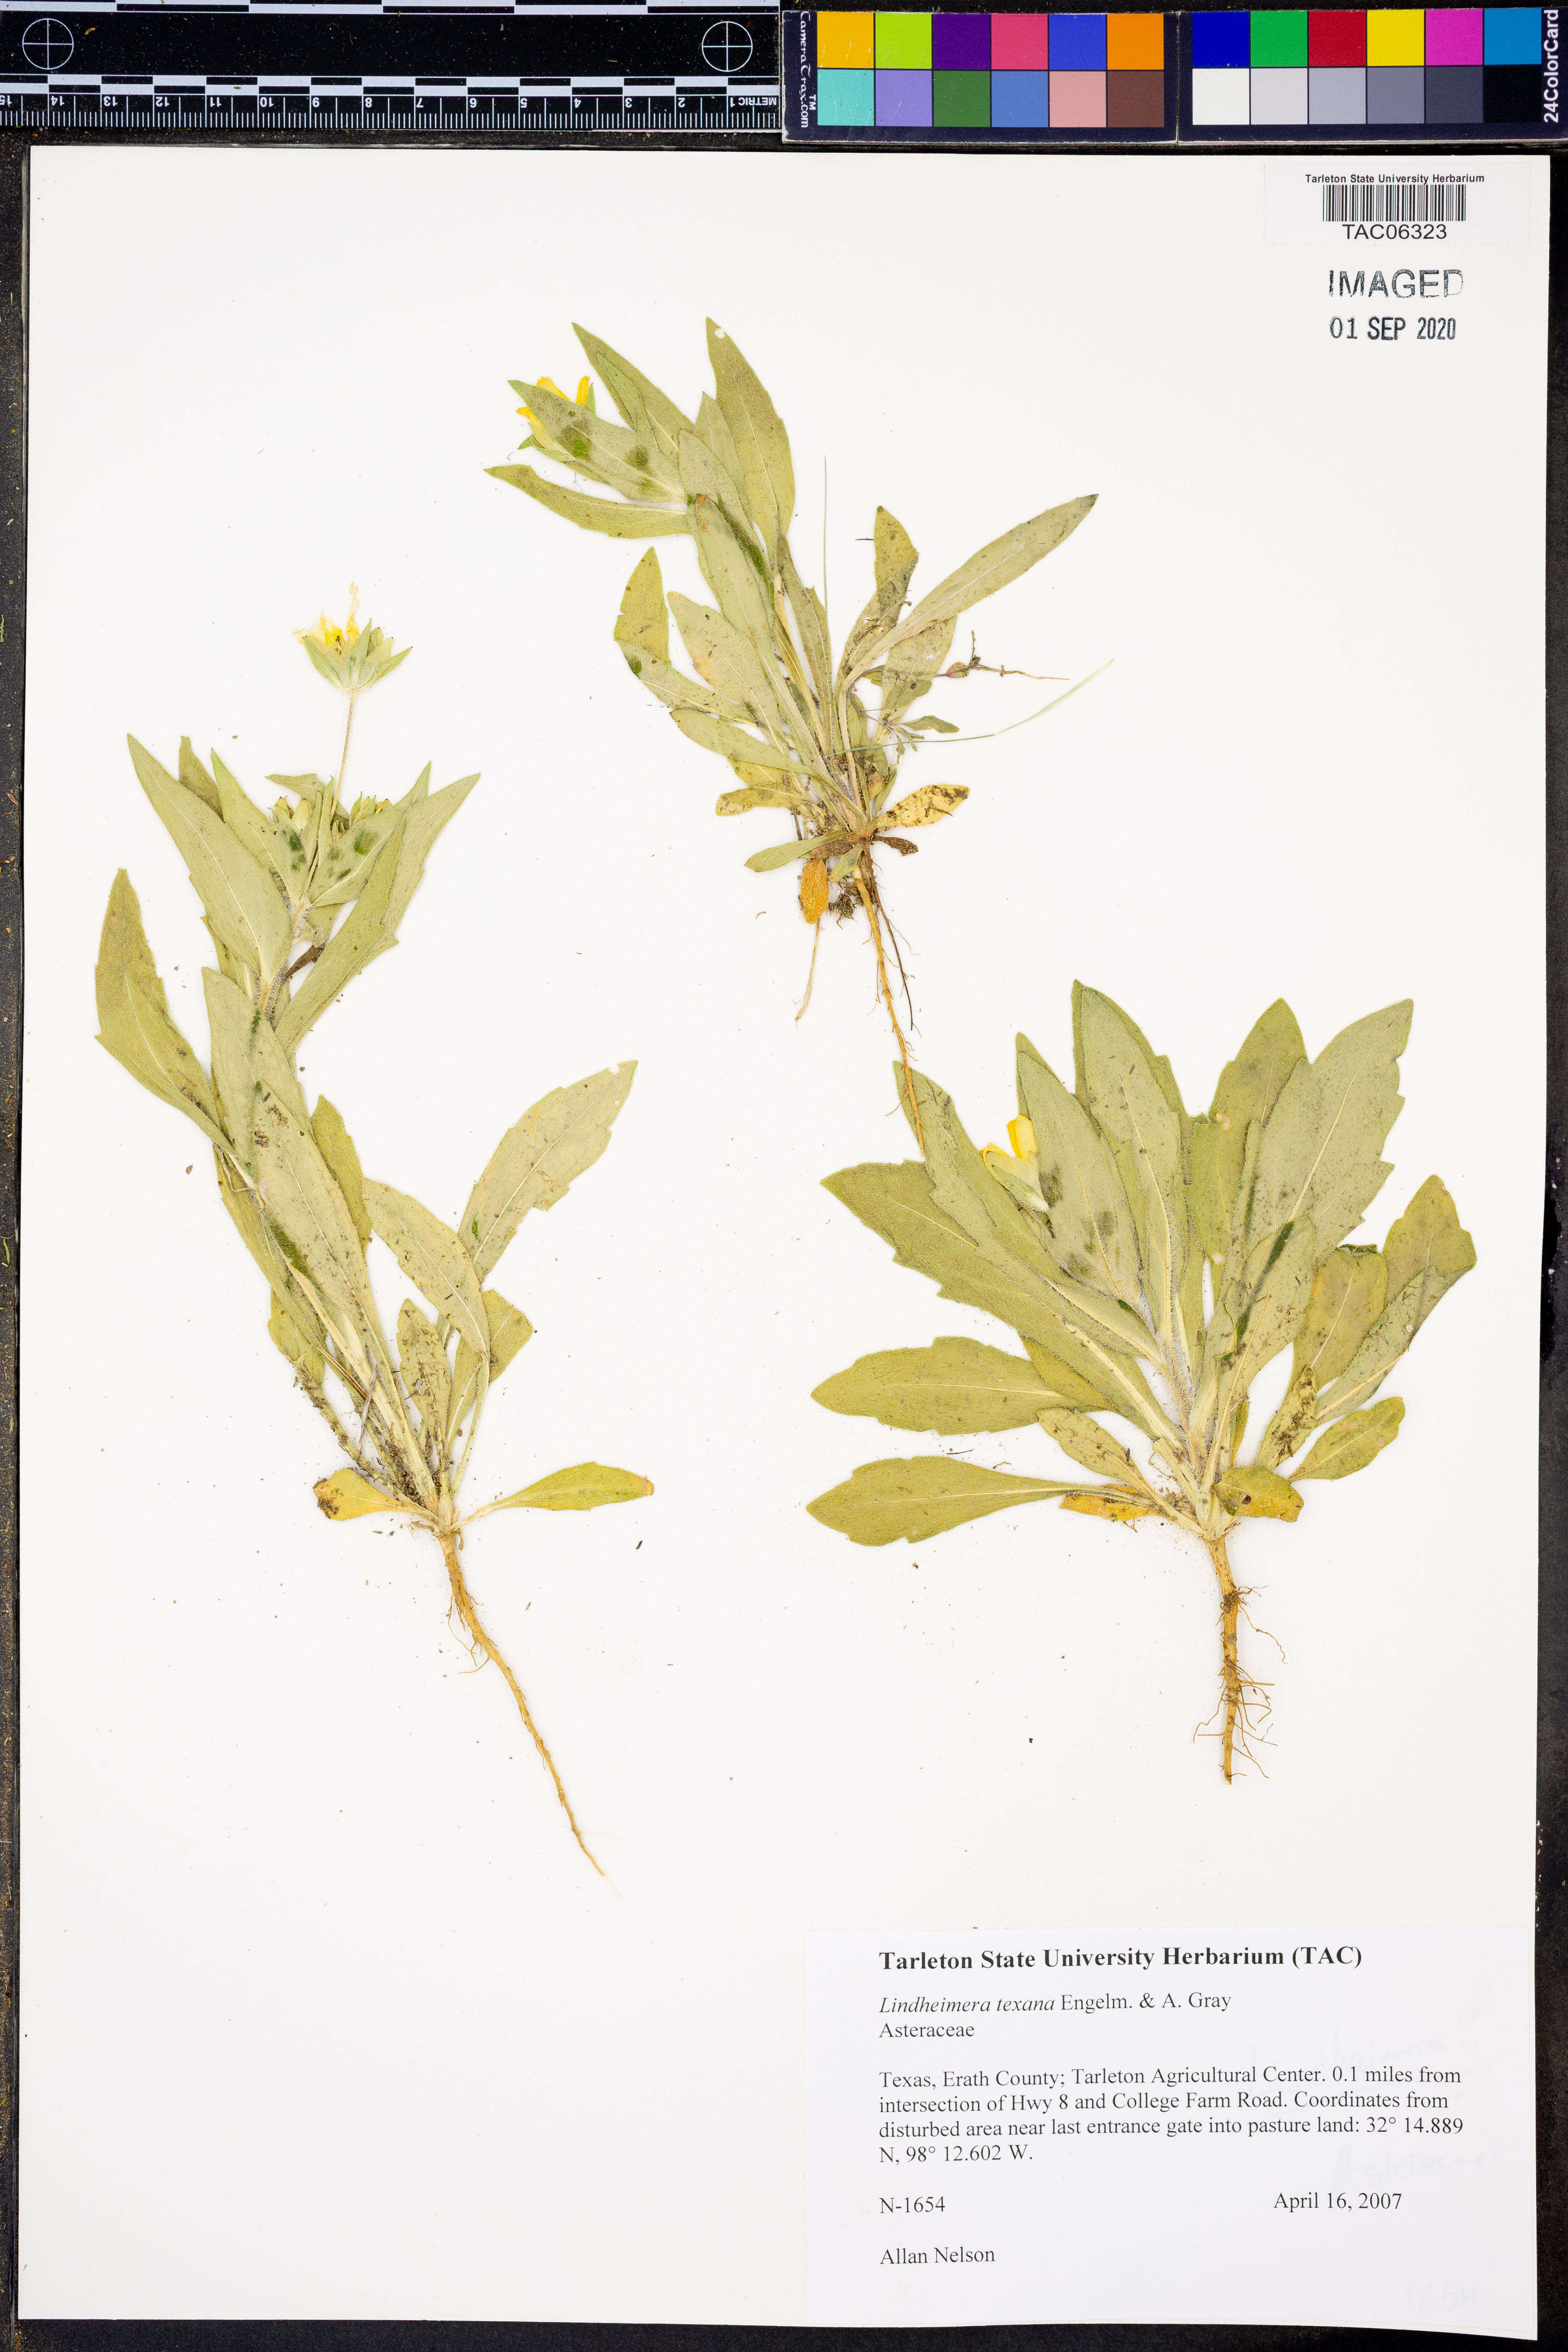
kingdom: Plantae
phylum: Tracheophyta
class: Magnoliopsida
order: Asterales
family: Asteraceae
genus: Lindheimera
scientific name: Lindheimera texana
